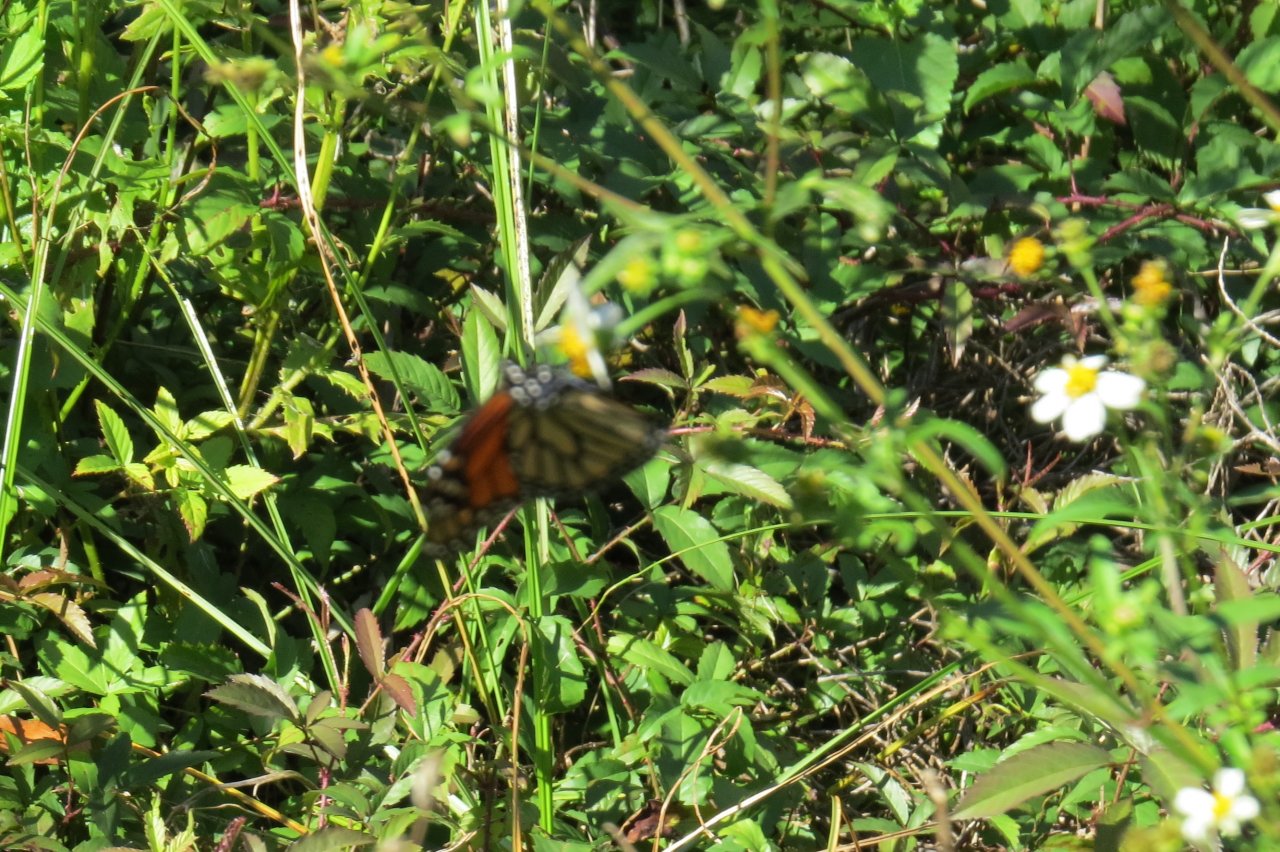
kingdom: Animalia
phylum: Arthropoda
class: Insecta
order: Lepidoptera
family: Nymphalidae
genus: Danaus
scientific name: Danaus plexippus
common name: Monarch
